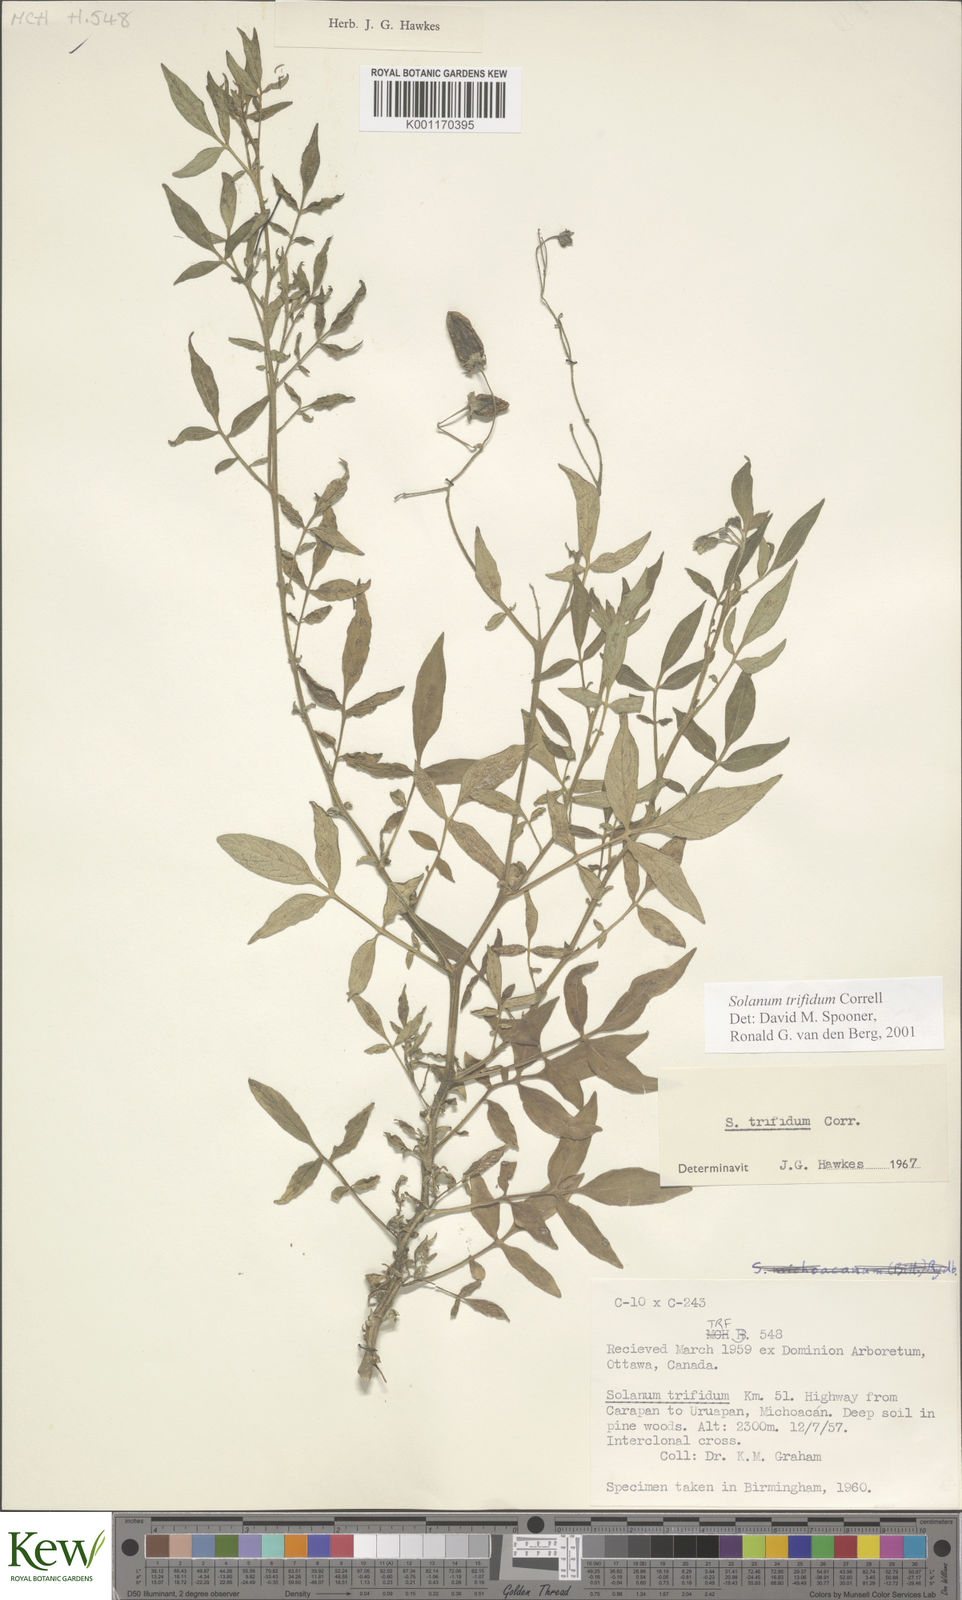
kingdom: Plantae
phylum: Tracheophyta
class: Magnoliopsida
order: Solanales
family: Solanaceae
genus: Solanum
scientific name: Solanum trifidum
